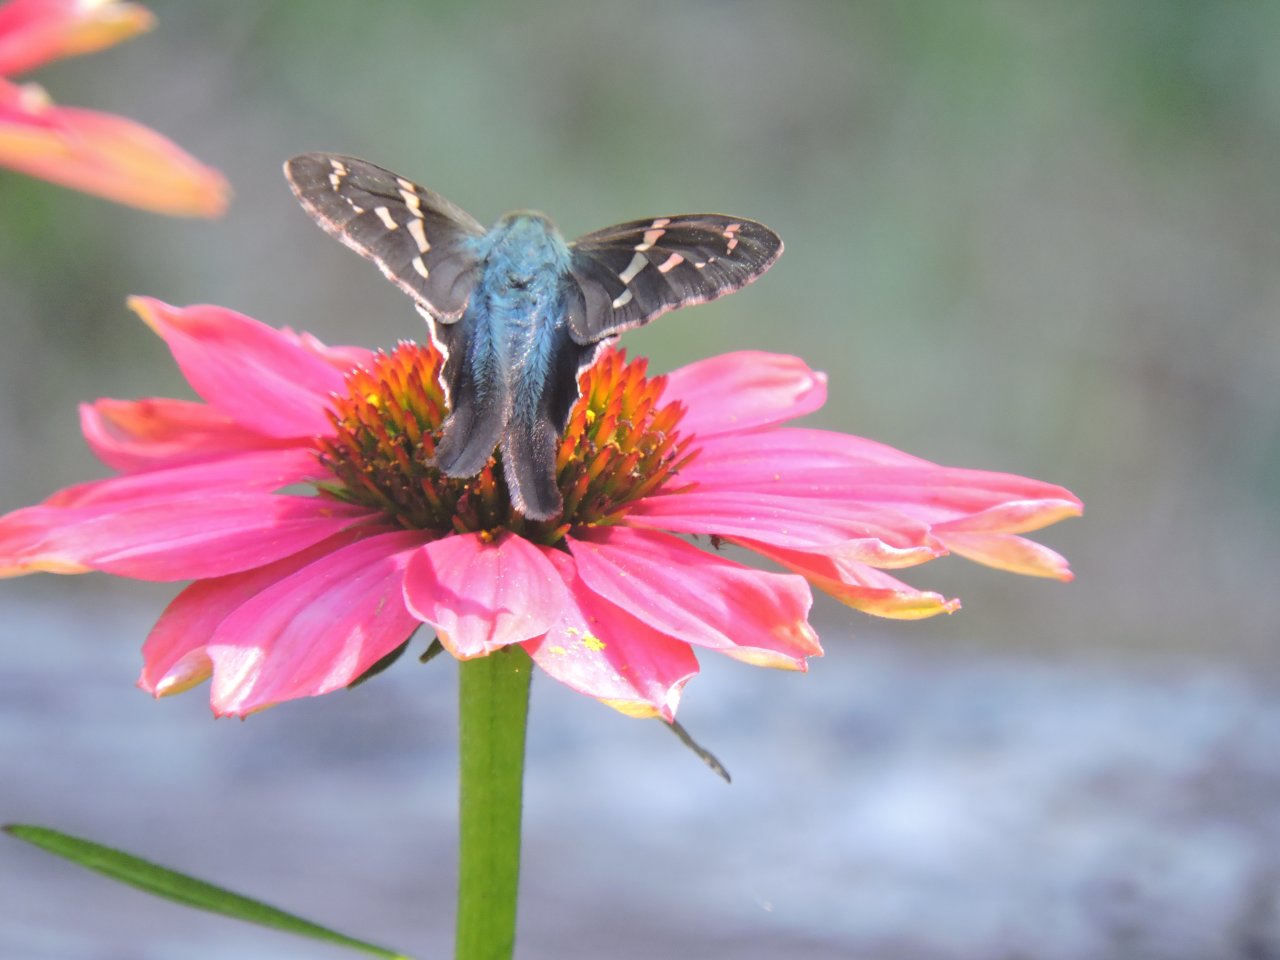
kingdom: Animalia
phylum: Arthropoda
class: Insecta
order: Lepidoptera
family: Hesperiidae
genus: Urbanus
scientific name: Urbanus proteus
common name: Long-tailed Skipper
